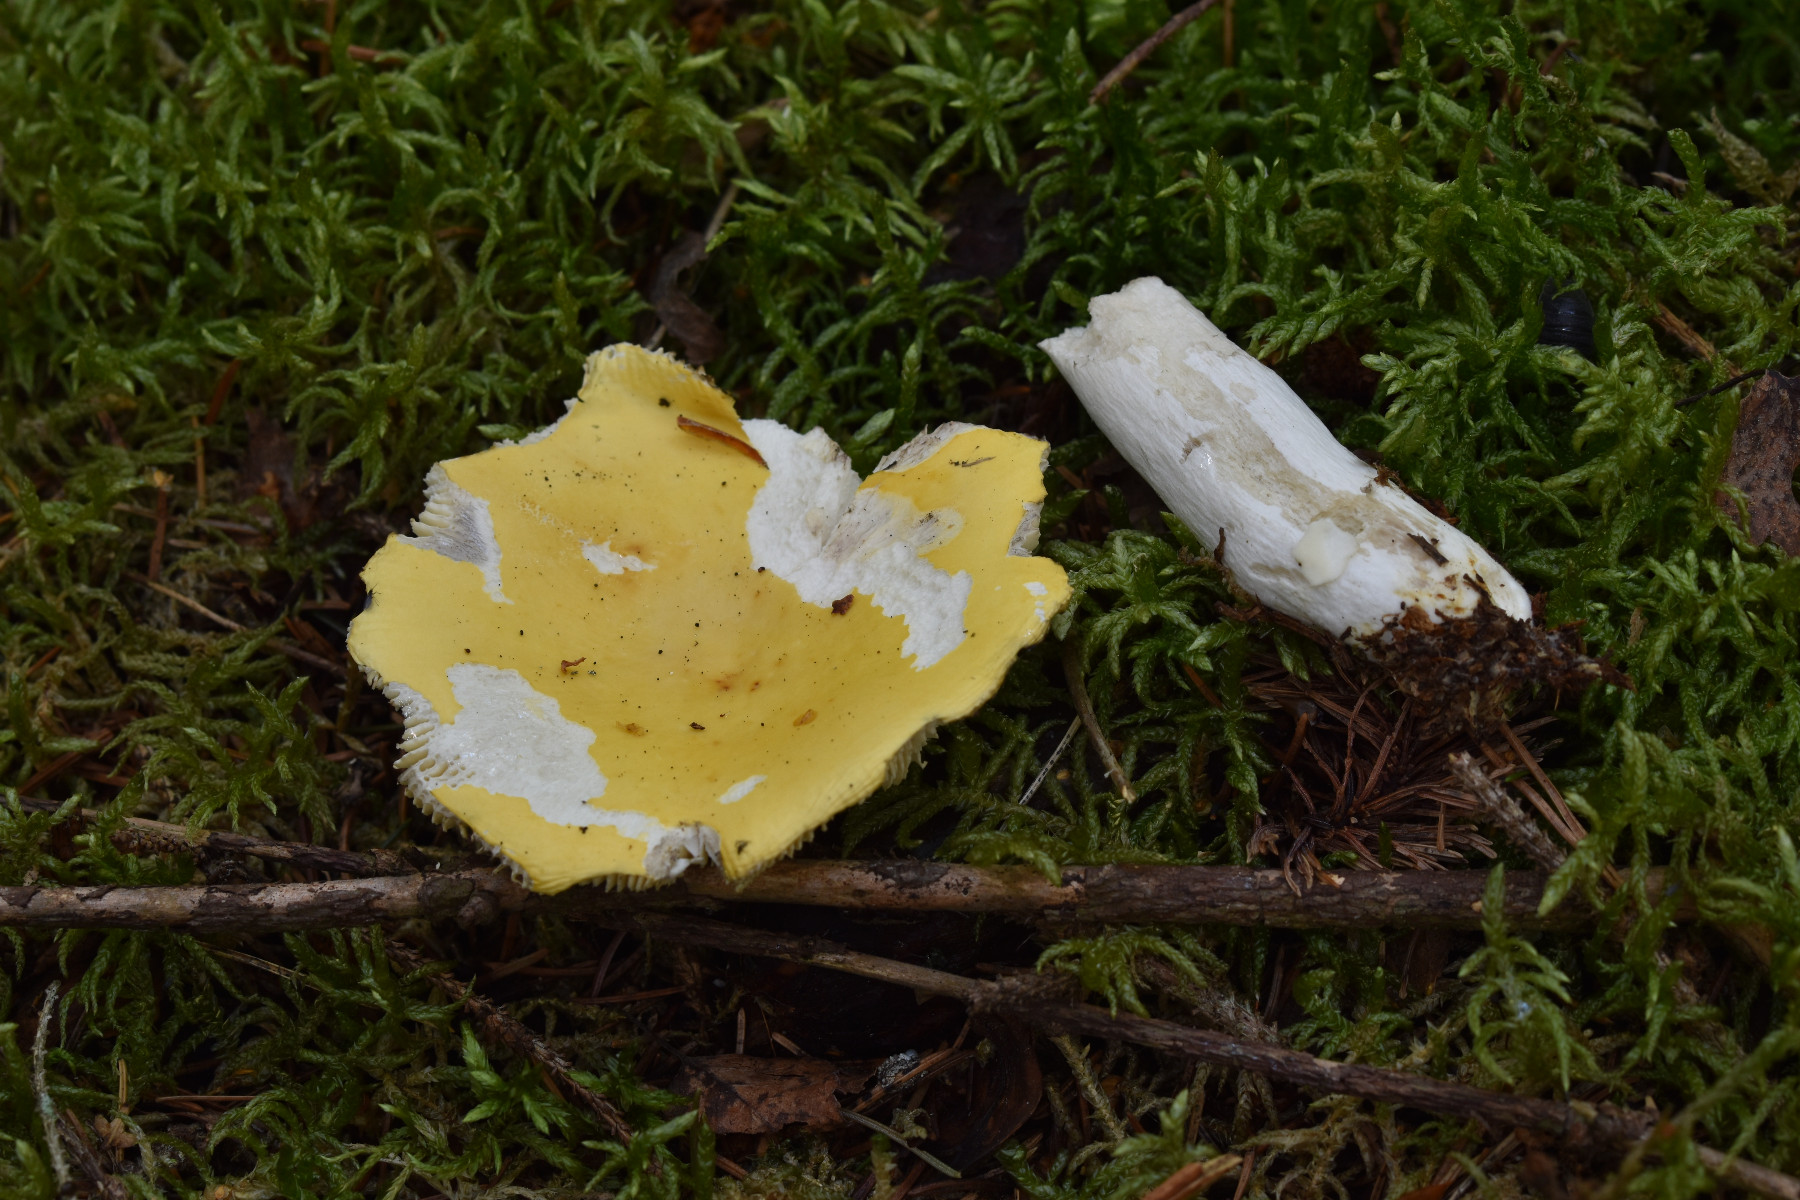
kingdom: Fungi
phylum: Basidiomycota
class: Agaricomycetes
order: Russulales
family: Russulaceae
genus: Russula
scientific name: Russula claroflava
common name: birke-skørhat
